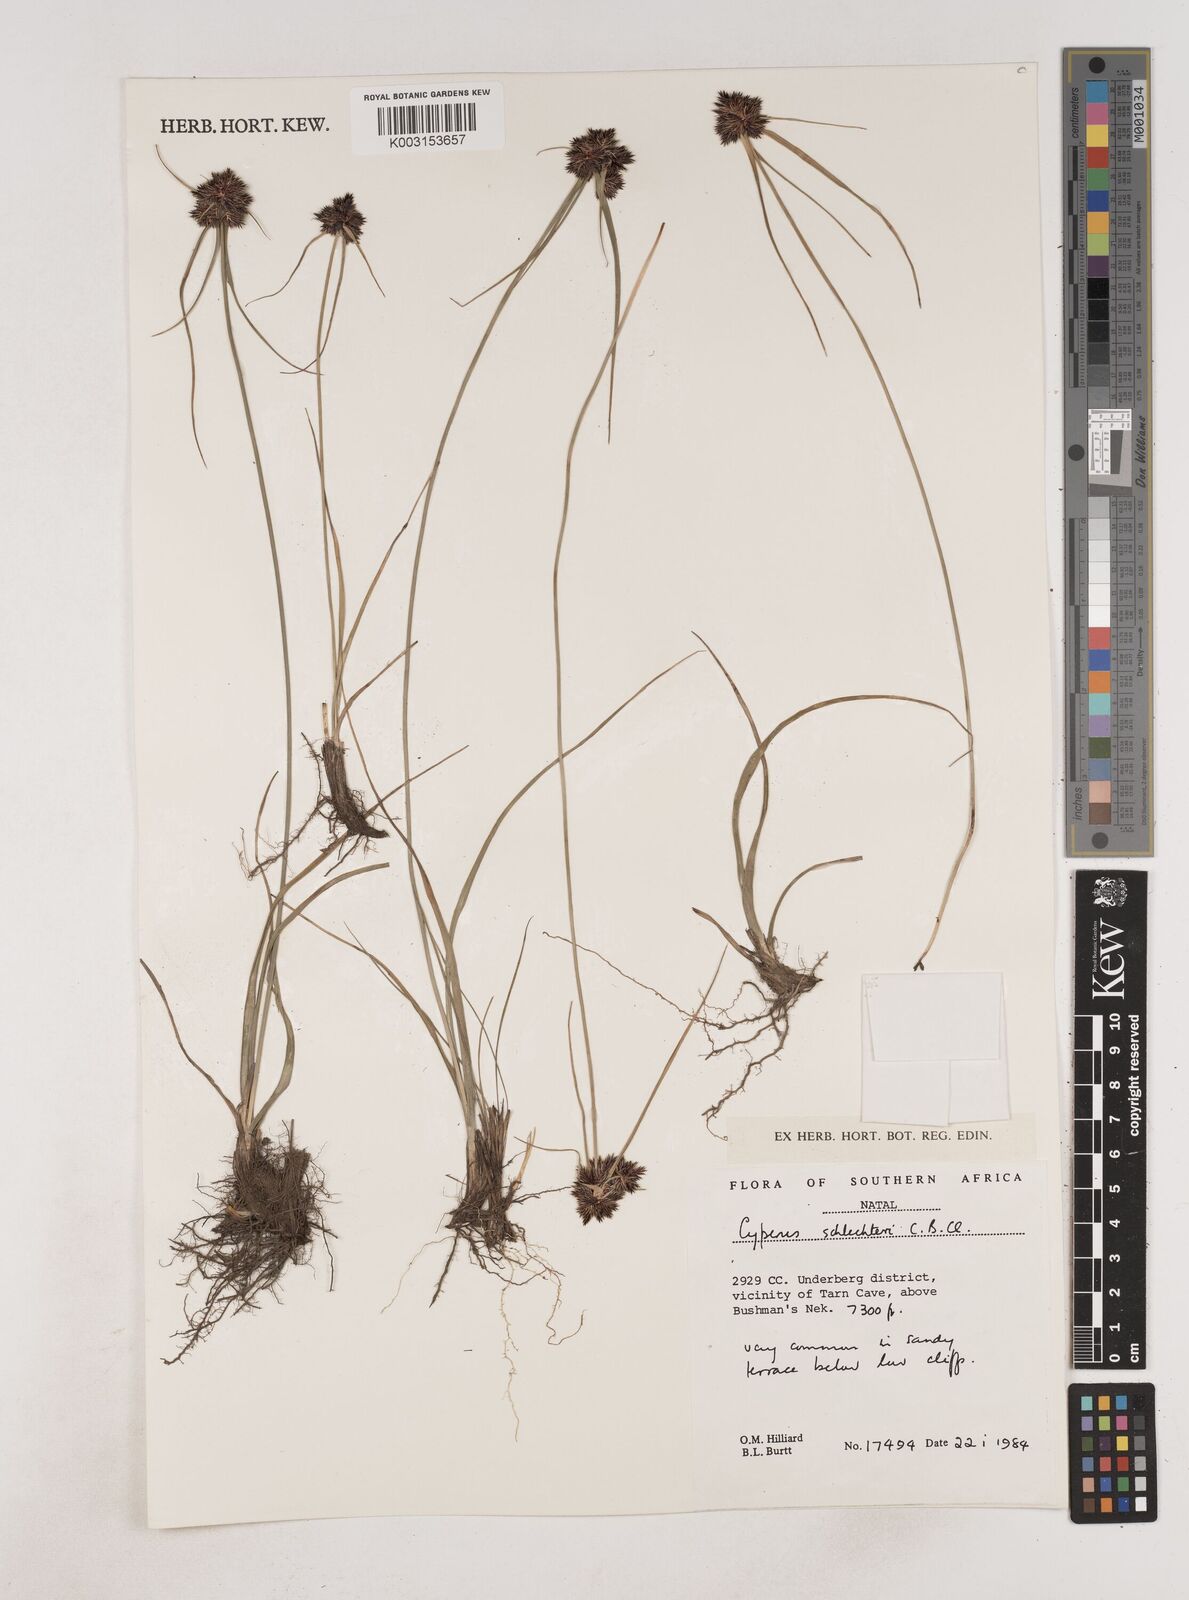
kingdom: Plantae
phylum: Tracheophyta
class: Liliopsida
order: Poales
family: Cyperaceae
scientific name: Cyperaceae
